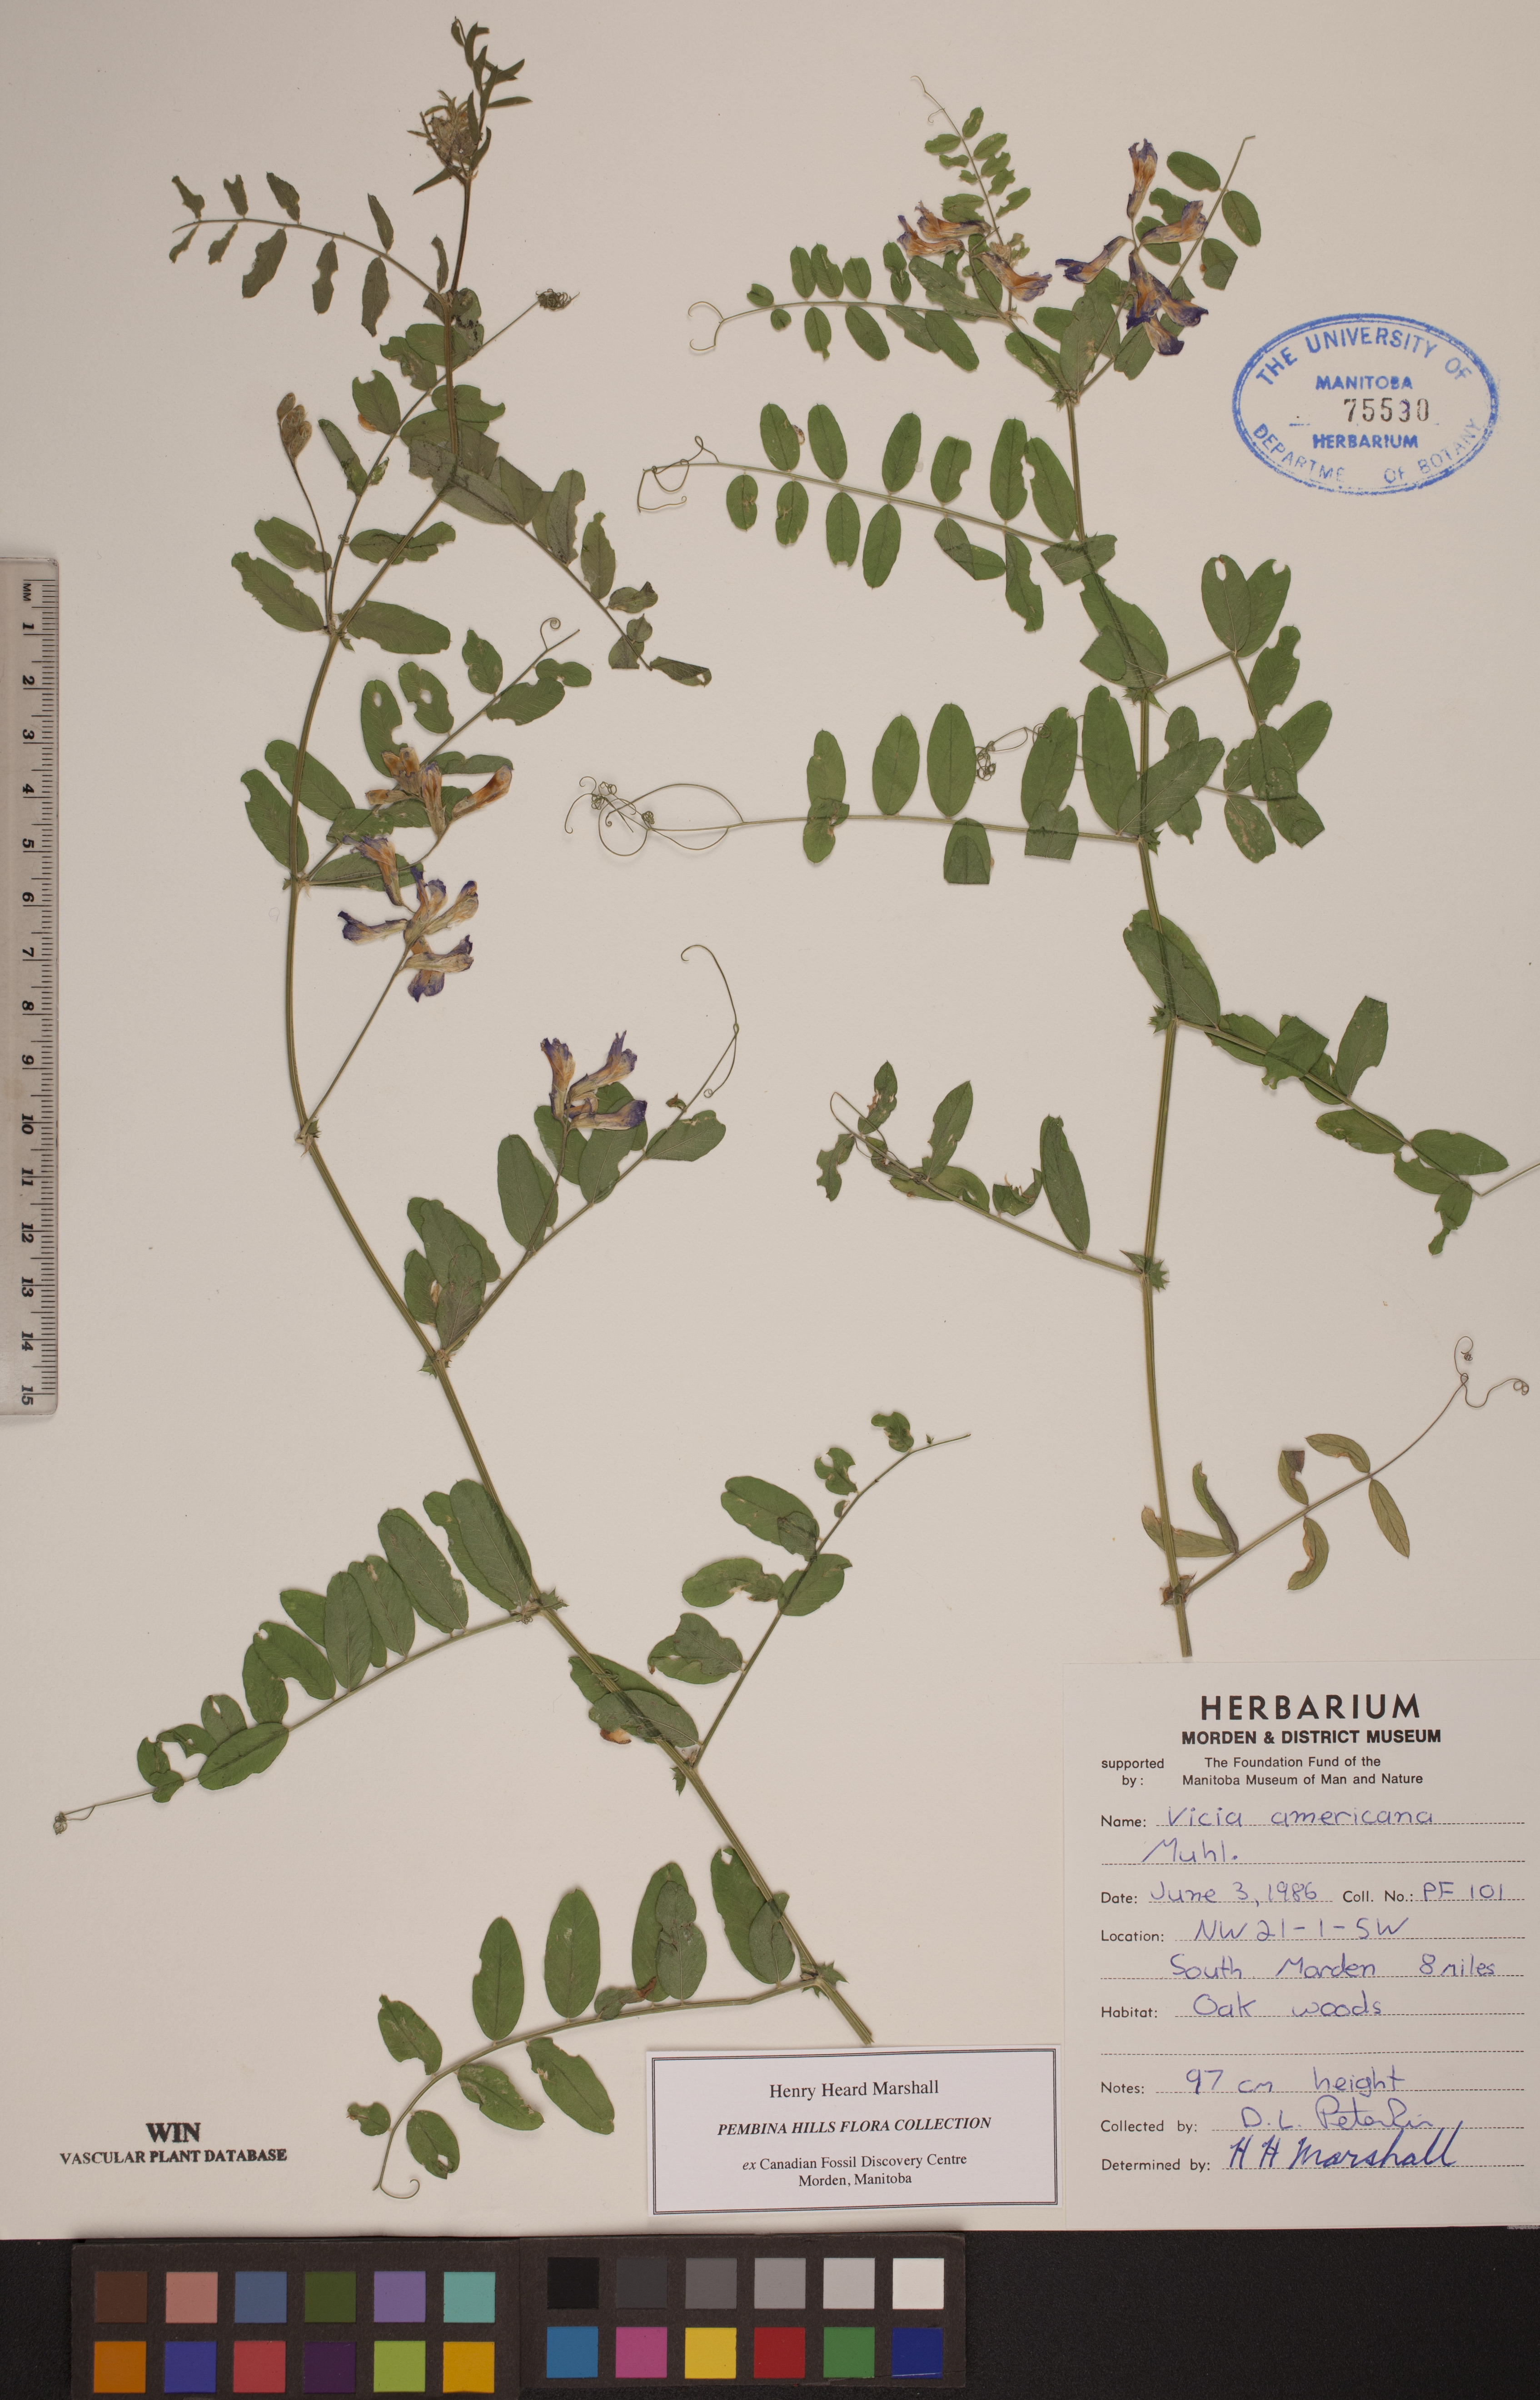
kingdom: Plantae
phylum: Tracheophyta
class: Magnoliopsida
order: Fabales
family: Fabaceae
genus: Vicia
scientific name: Vicia americana
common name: American vetch
